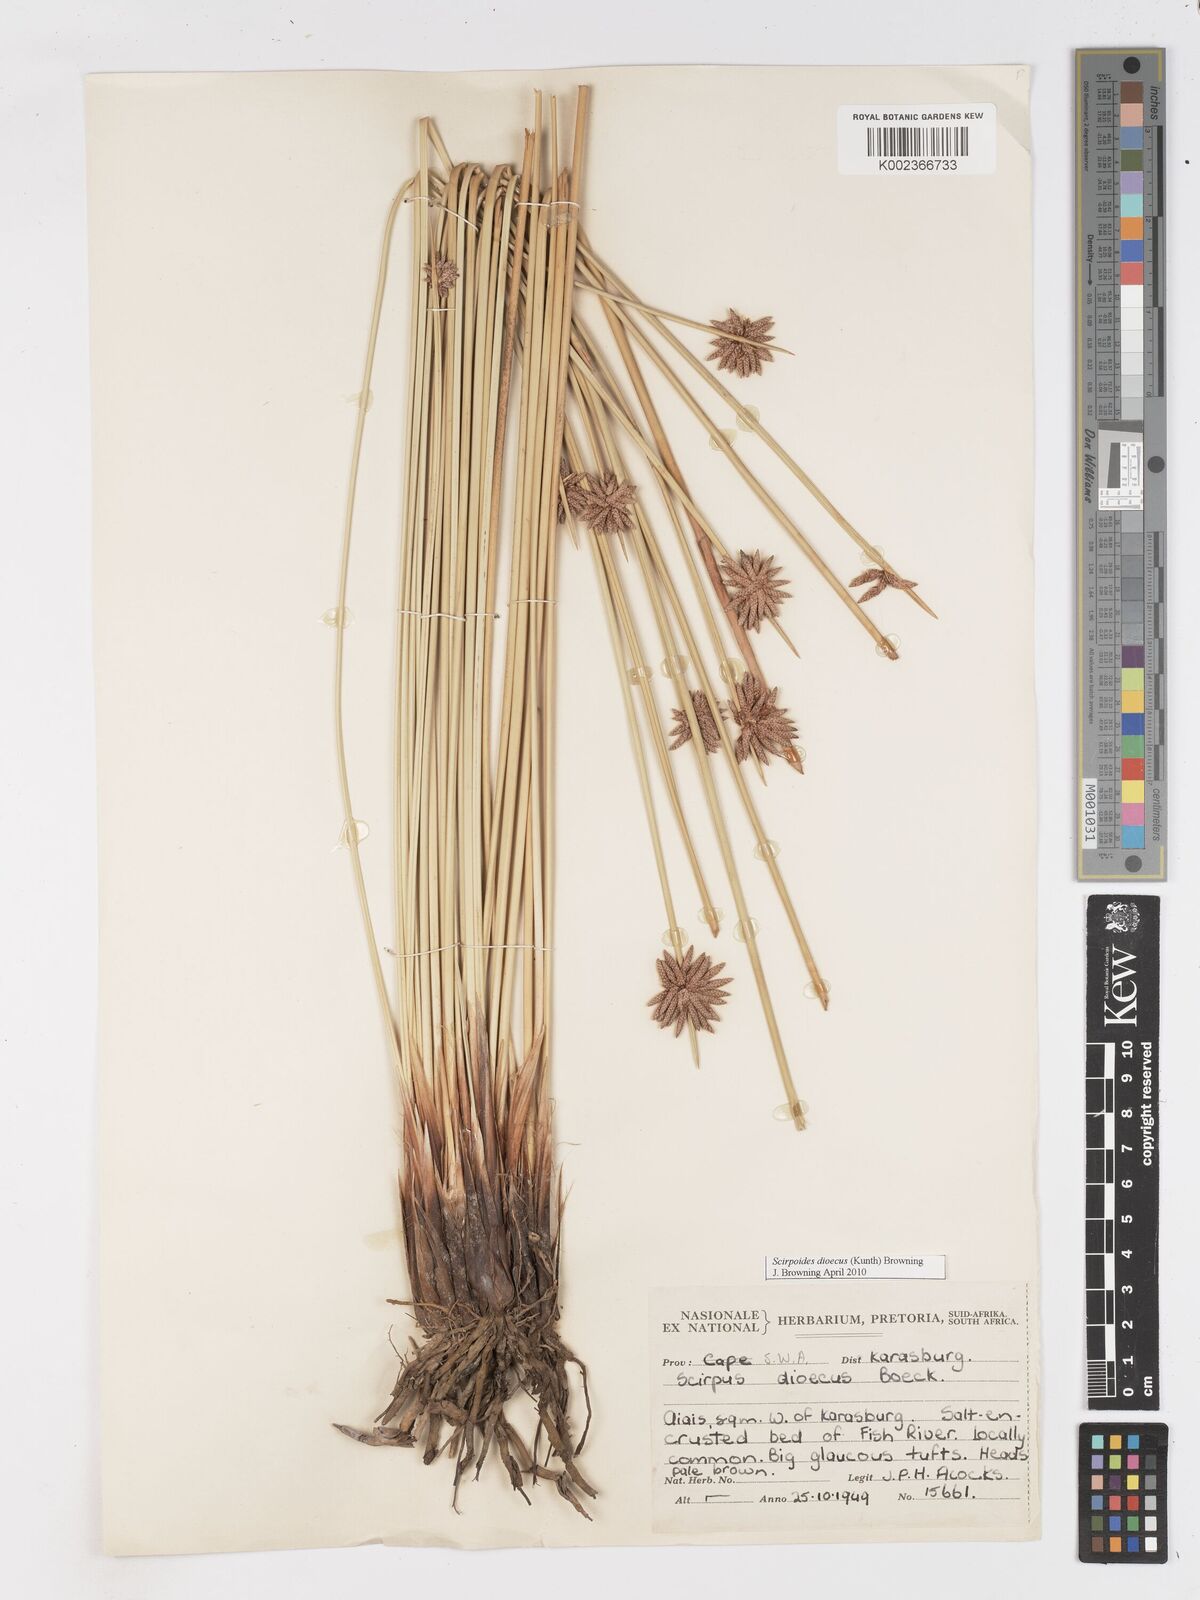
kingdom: Plantae
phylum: Tracheophyta
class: Liliopsida
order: Poales
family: Cyperaceae
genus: Scirpoides
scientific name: Scirpoides
